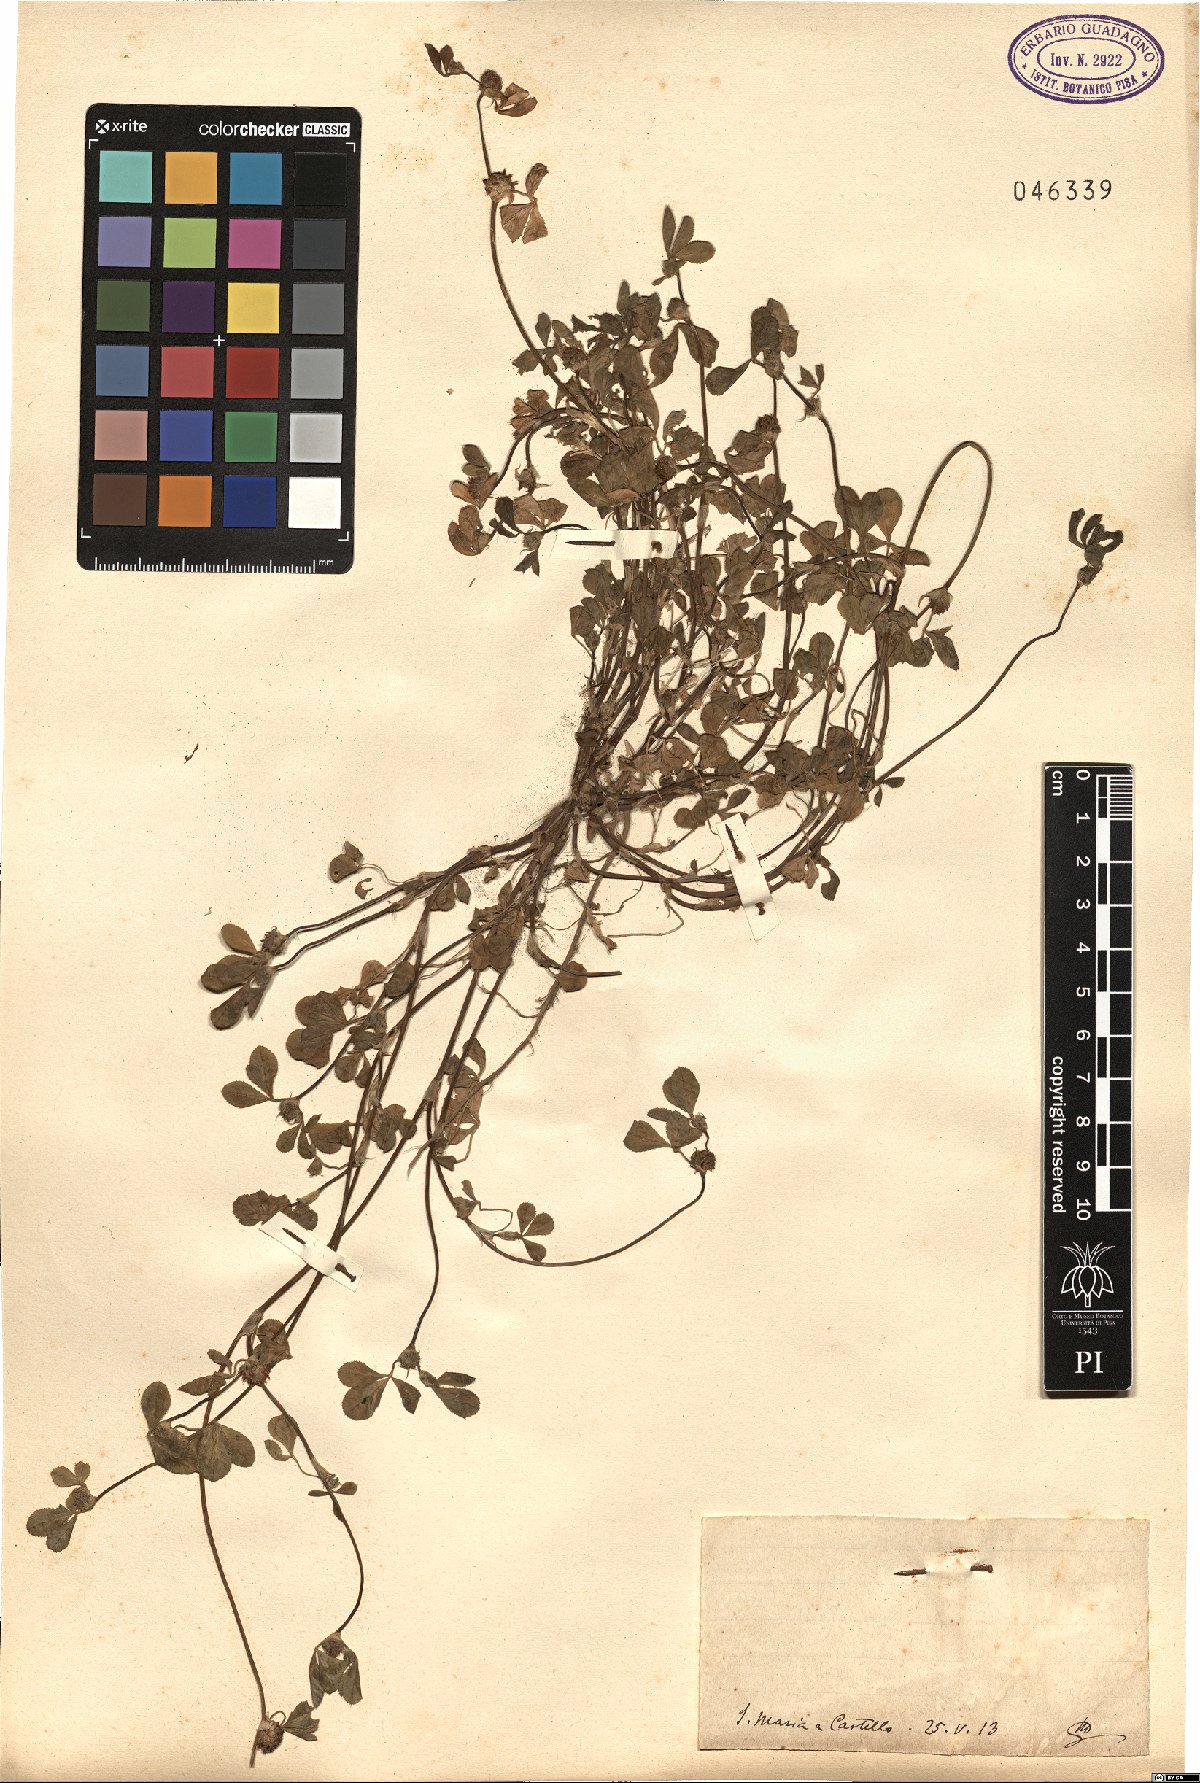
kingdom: Plantae
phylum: Tracheophyta
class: Magnoliopsida
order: Fabales
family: Fabaceae
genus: Trifolium
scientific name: Trifolium
